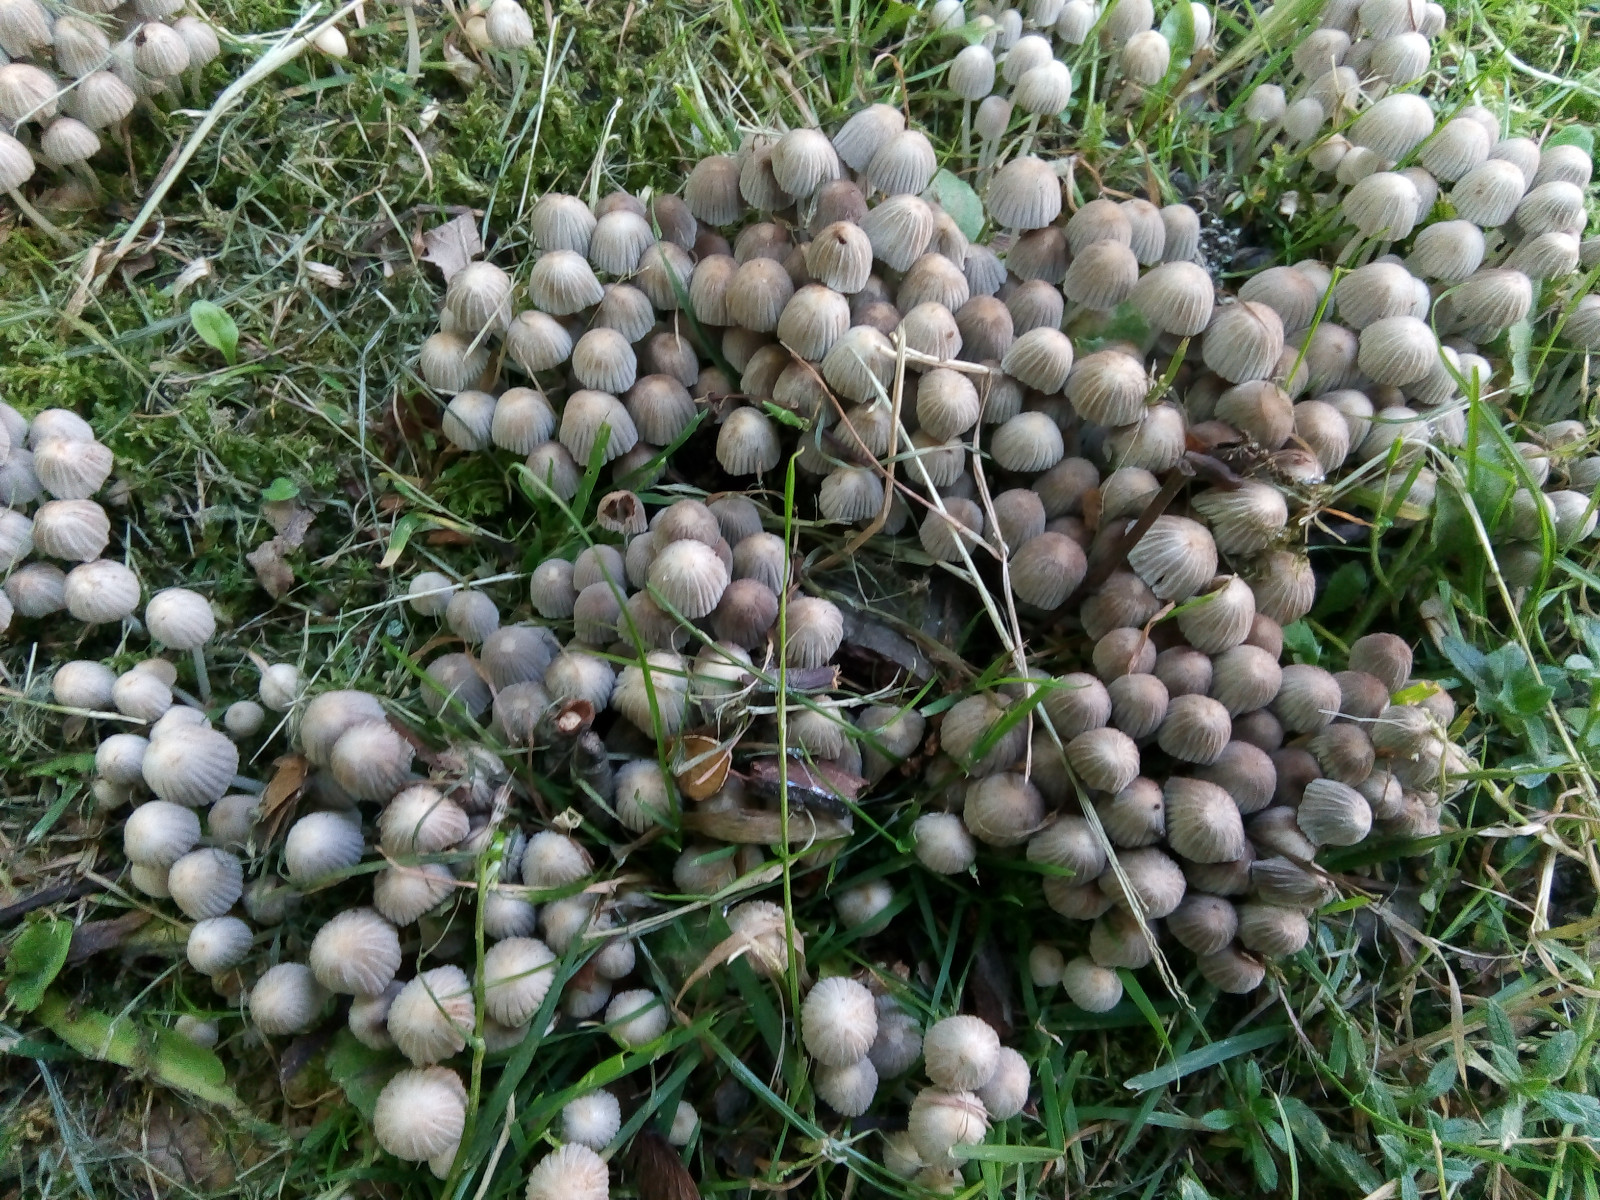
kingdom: Fungi
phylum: Basidiomycota
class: Agaricomycetes
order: Agaricales
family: Psathyrellaceae
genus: Coprinellus
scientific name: Coprinellus disseminatus
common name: bredsået blækhat
